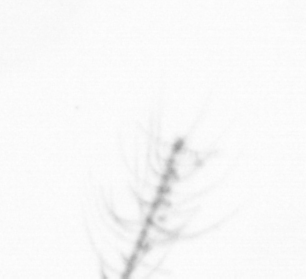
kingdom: Chromista
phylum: Ochrophyta
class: Bacillariophyceae
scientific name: Bacillariophyceae
